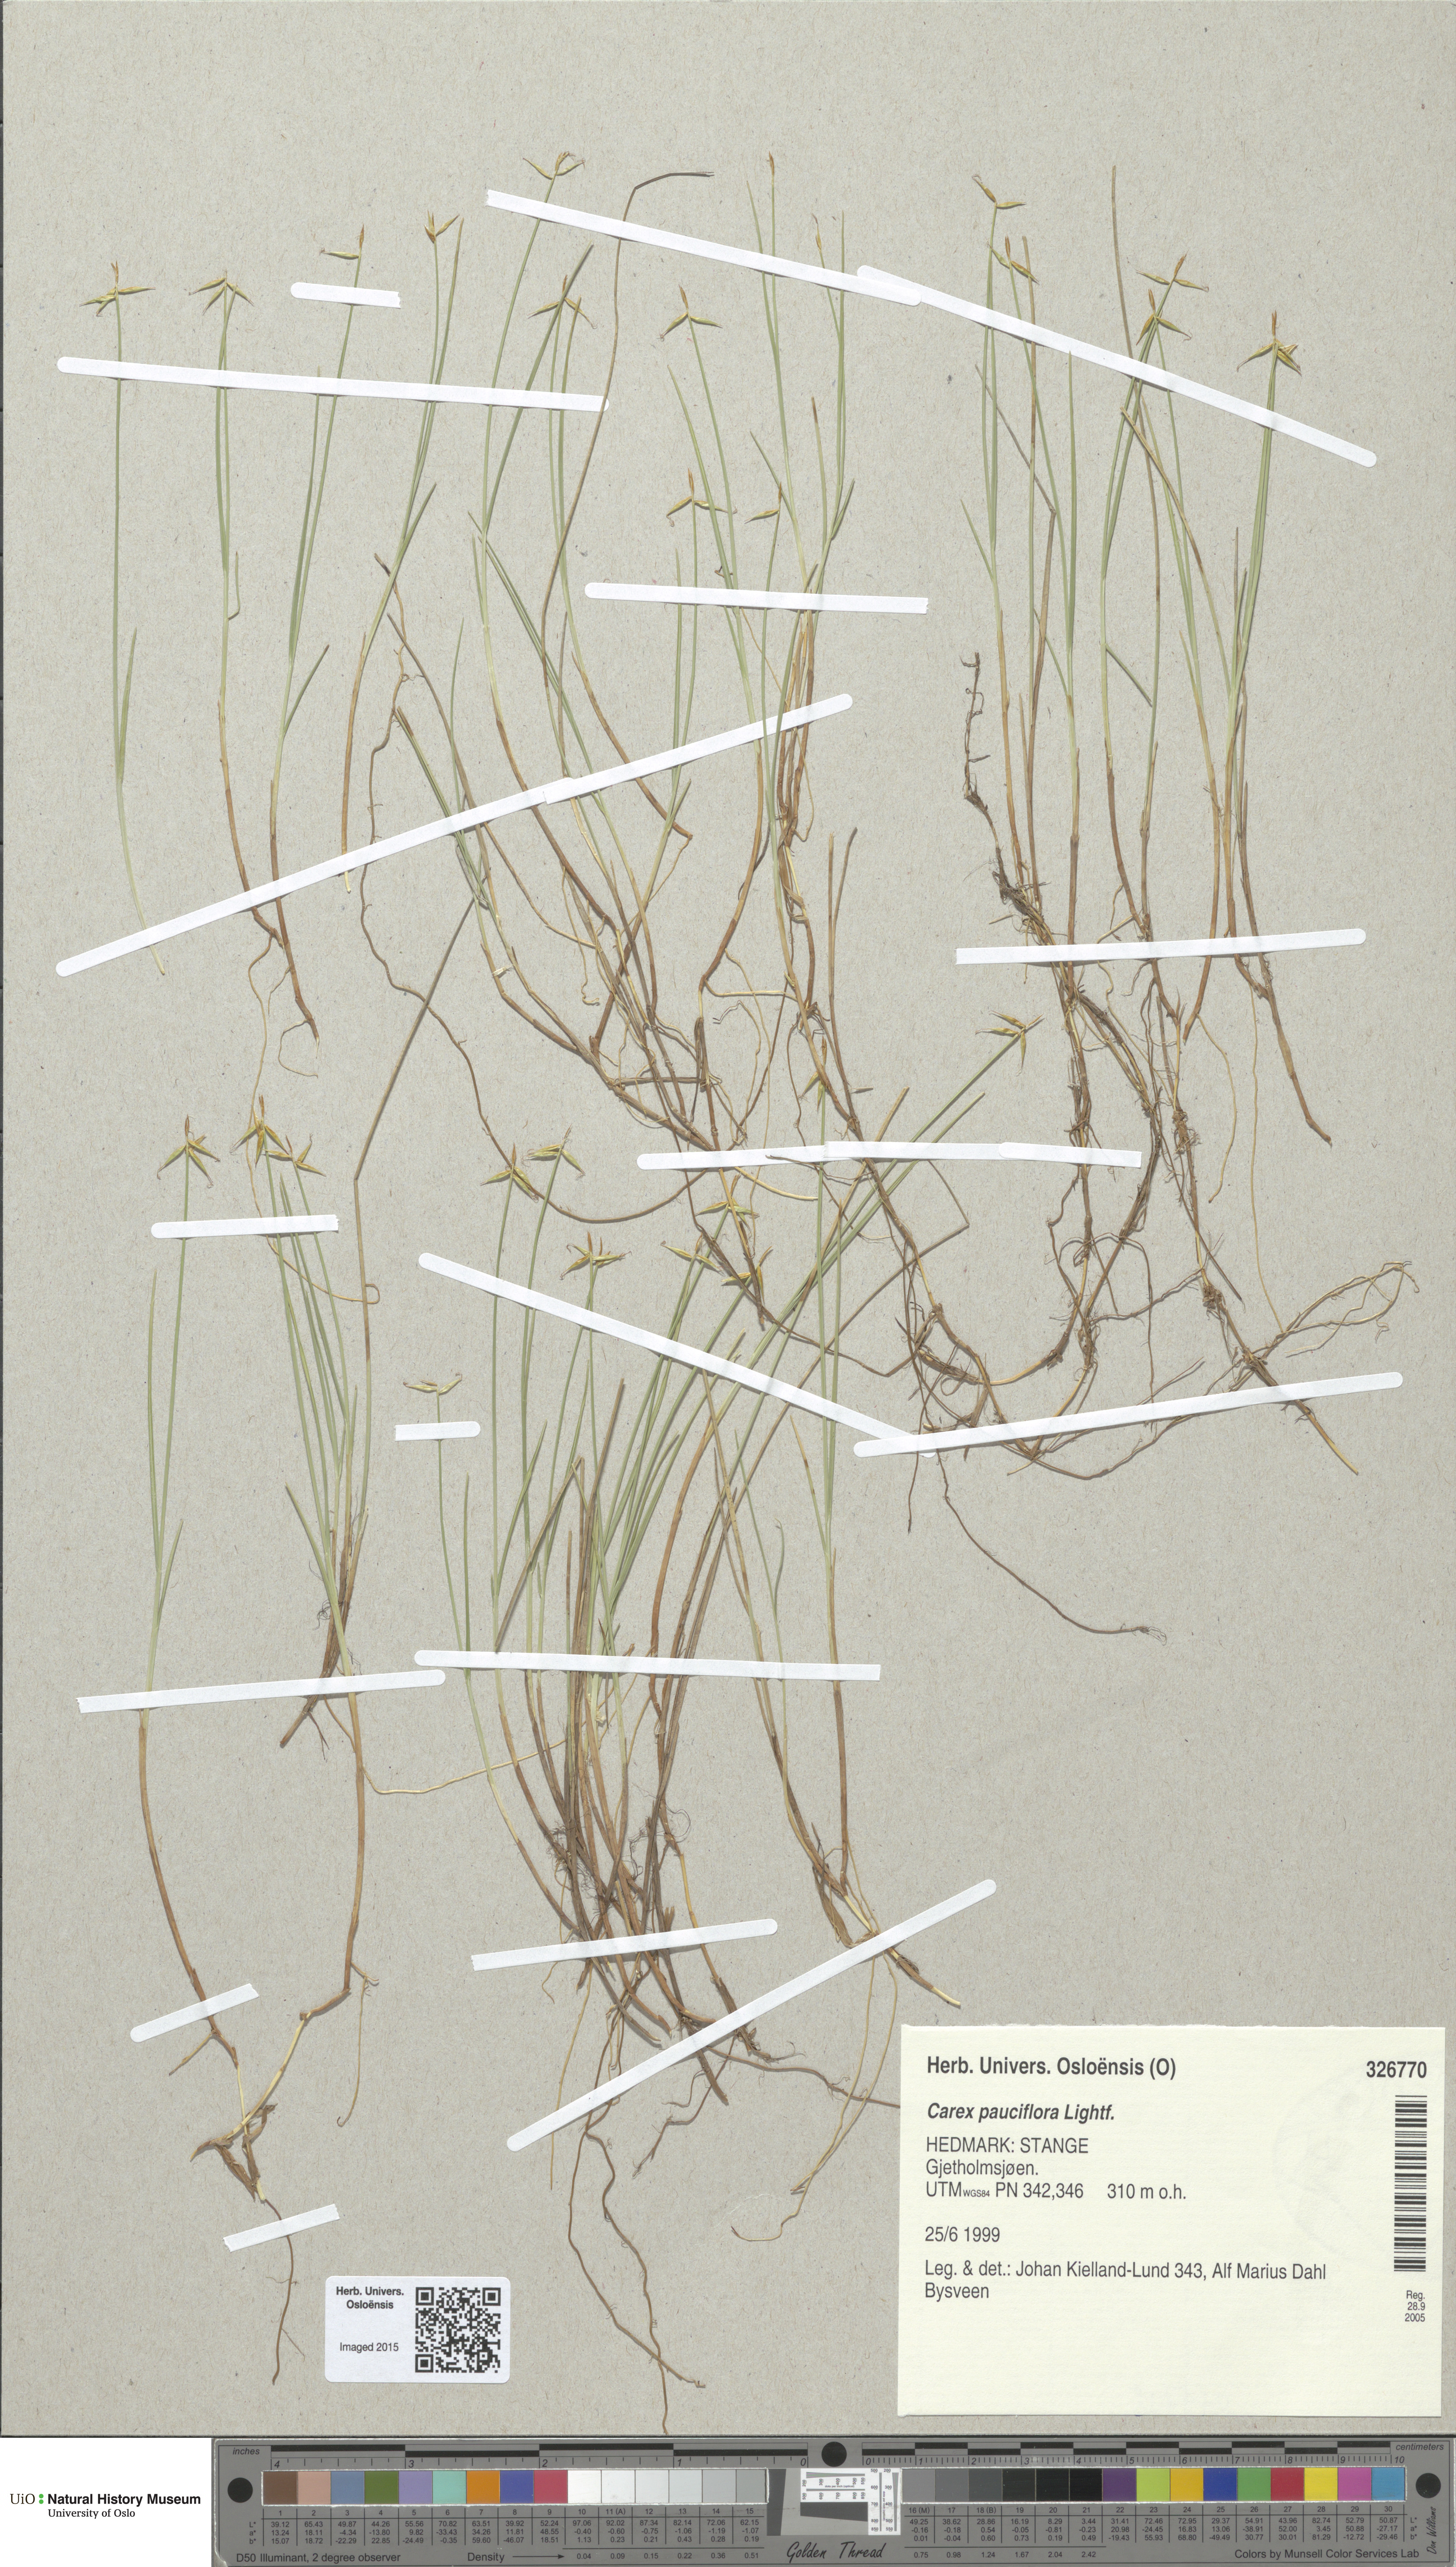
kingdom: Plantae
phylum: Tracheophyta
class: Liliopsida
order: Poales
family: Cyperaceae
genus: Carex
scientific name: Carex pauciflora
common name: Few-flowered sedge
